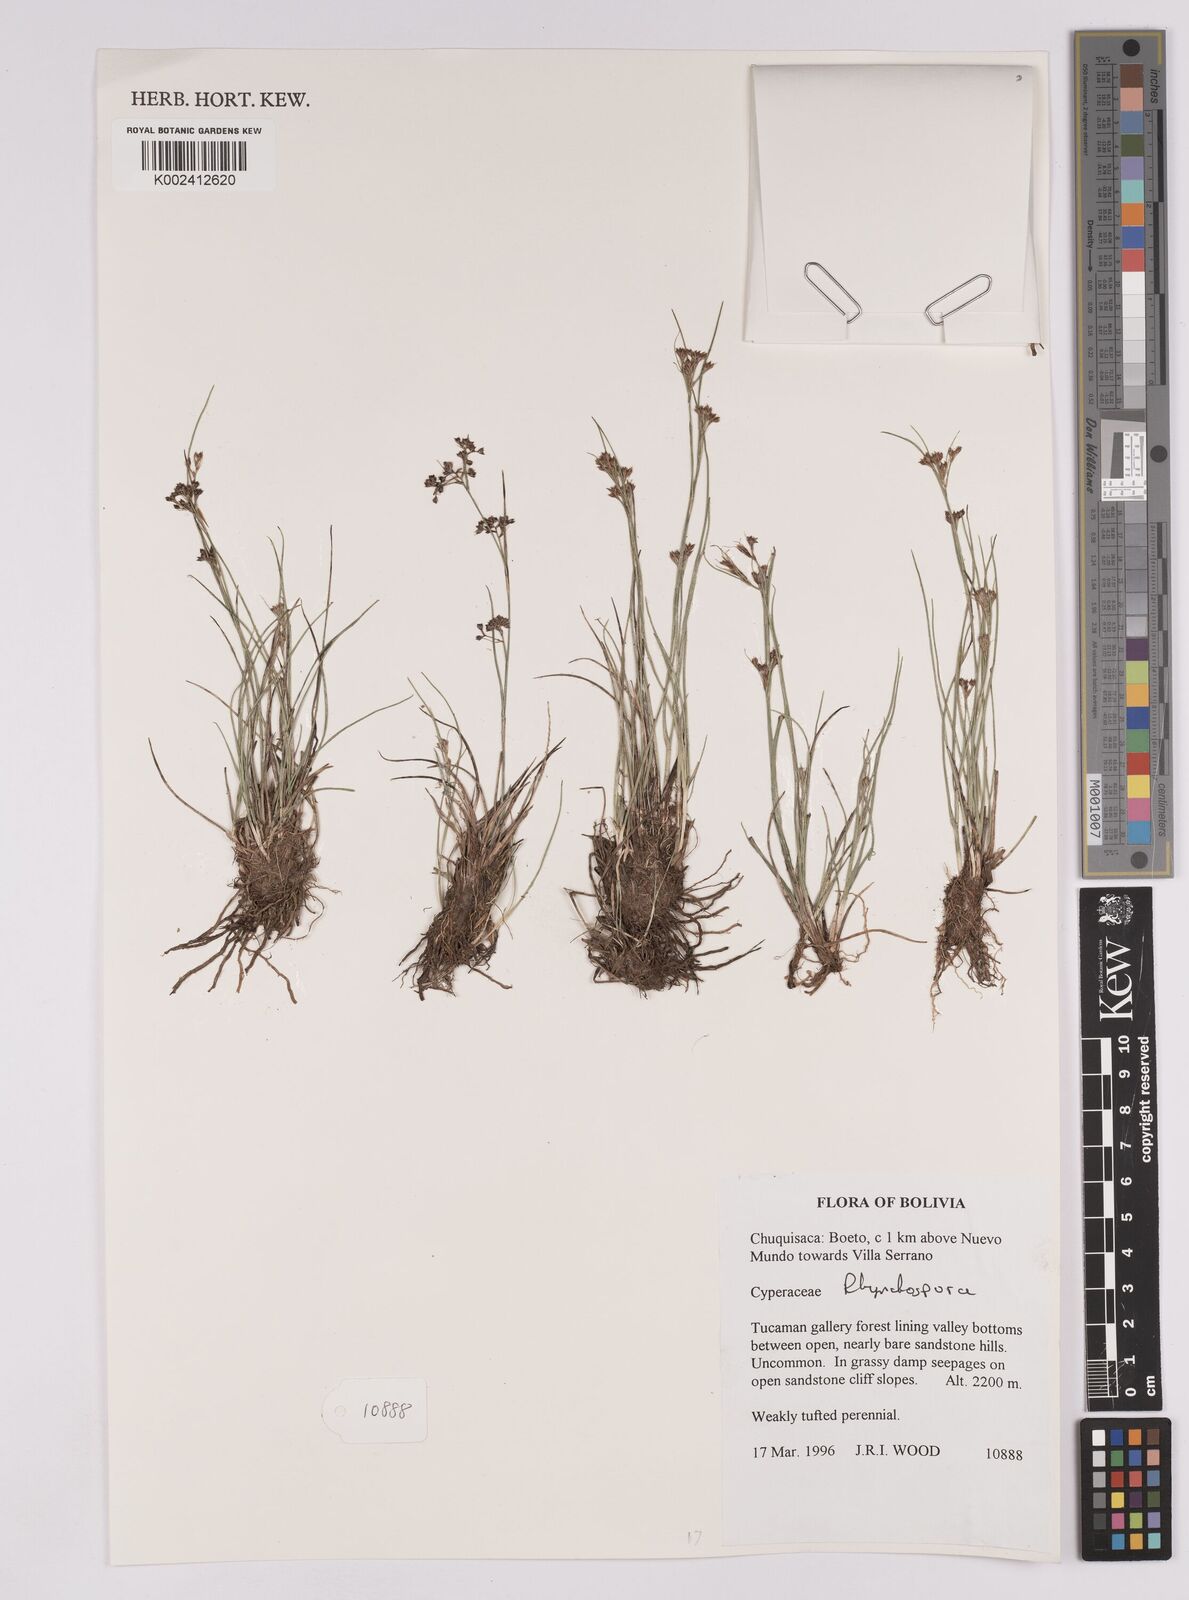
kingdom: Plantae
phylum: Tracheophyta
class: Liliopsida
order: Poales
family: Cyperaceae
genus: Rhynchospora
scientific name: Rhynchospora
